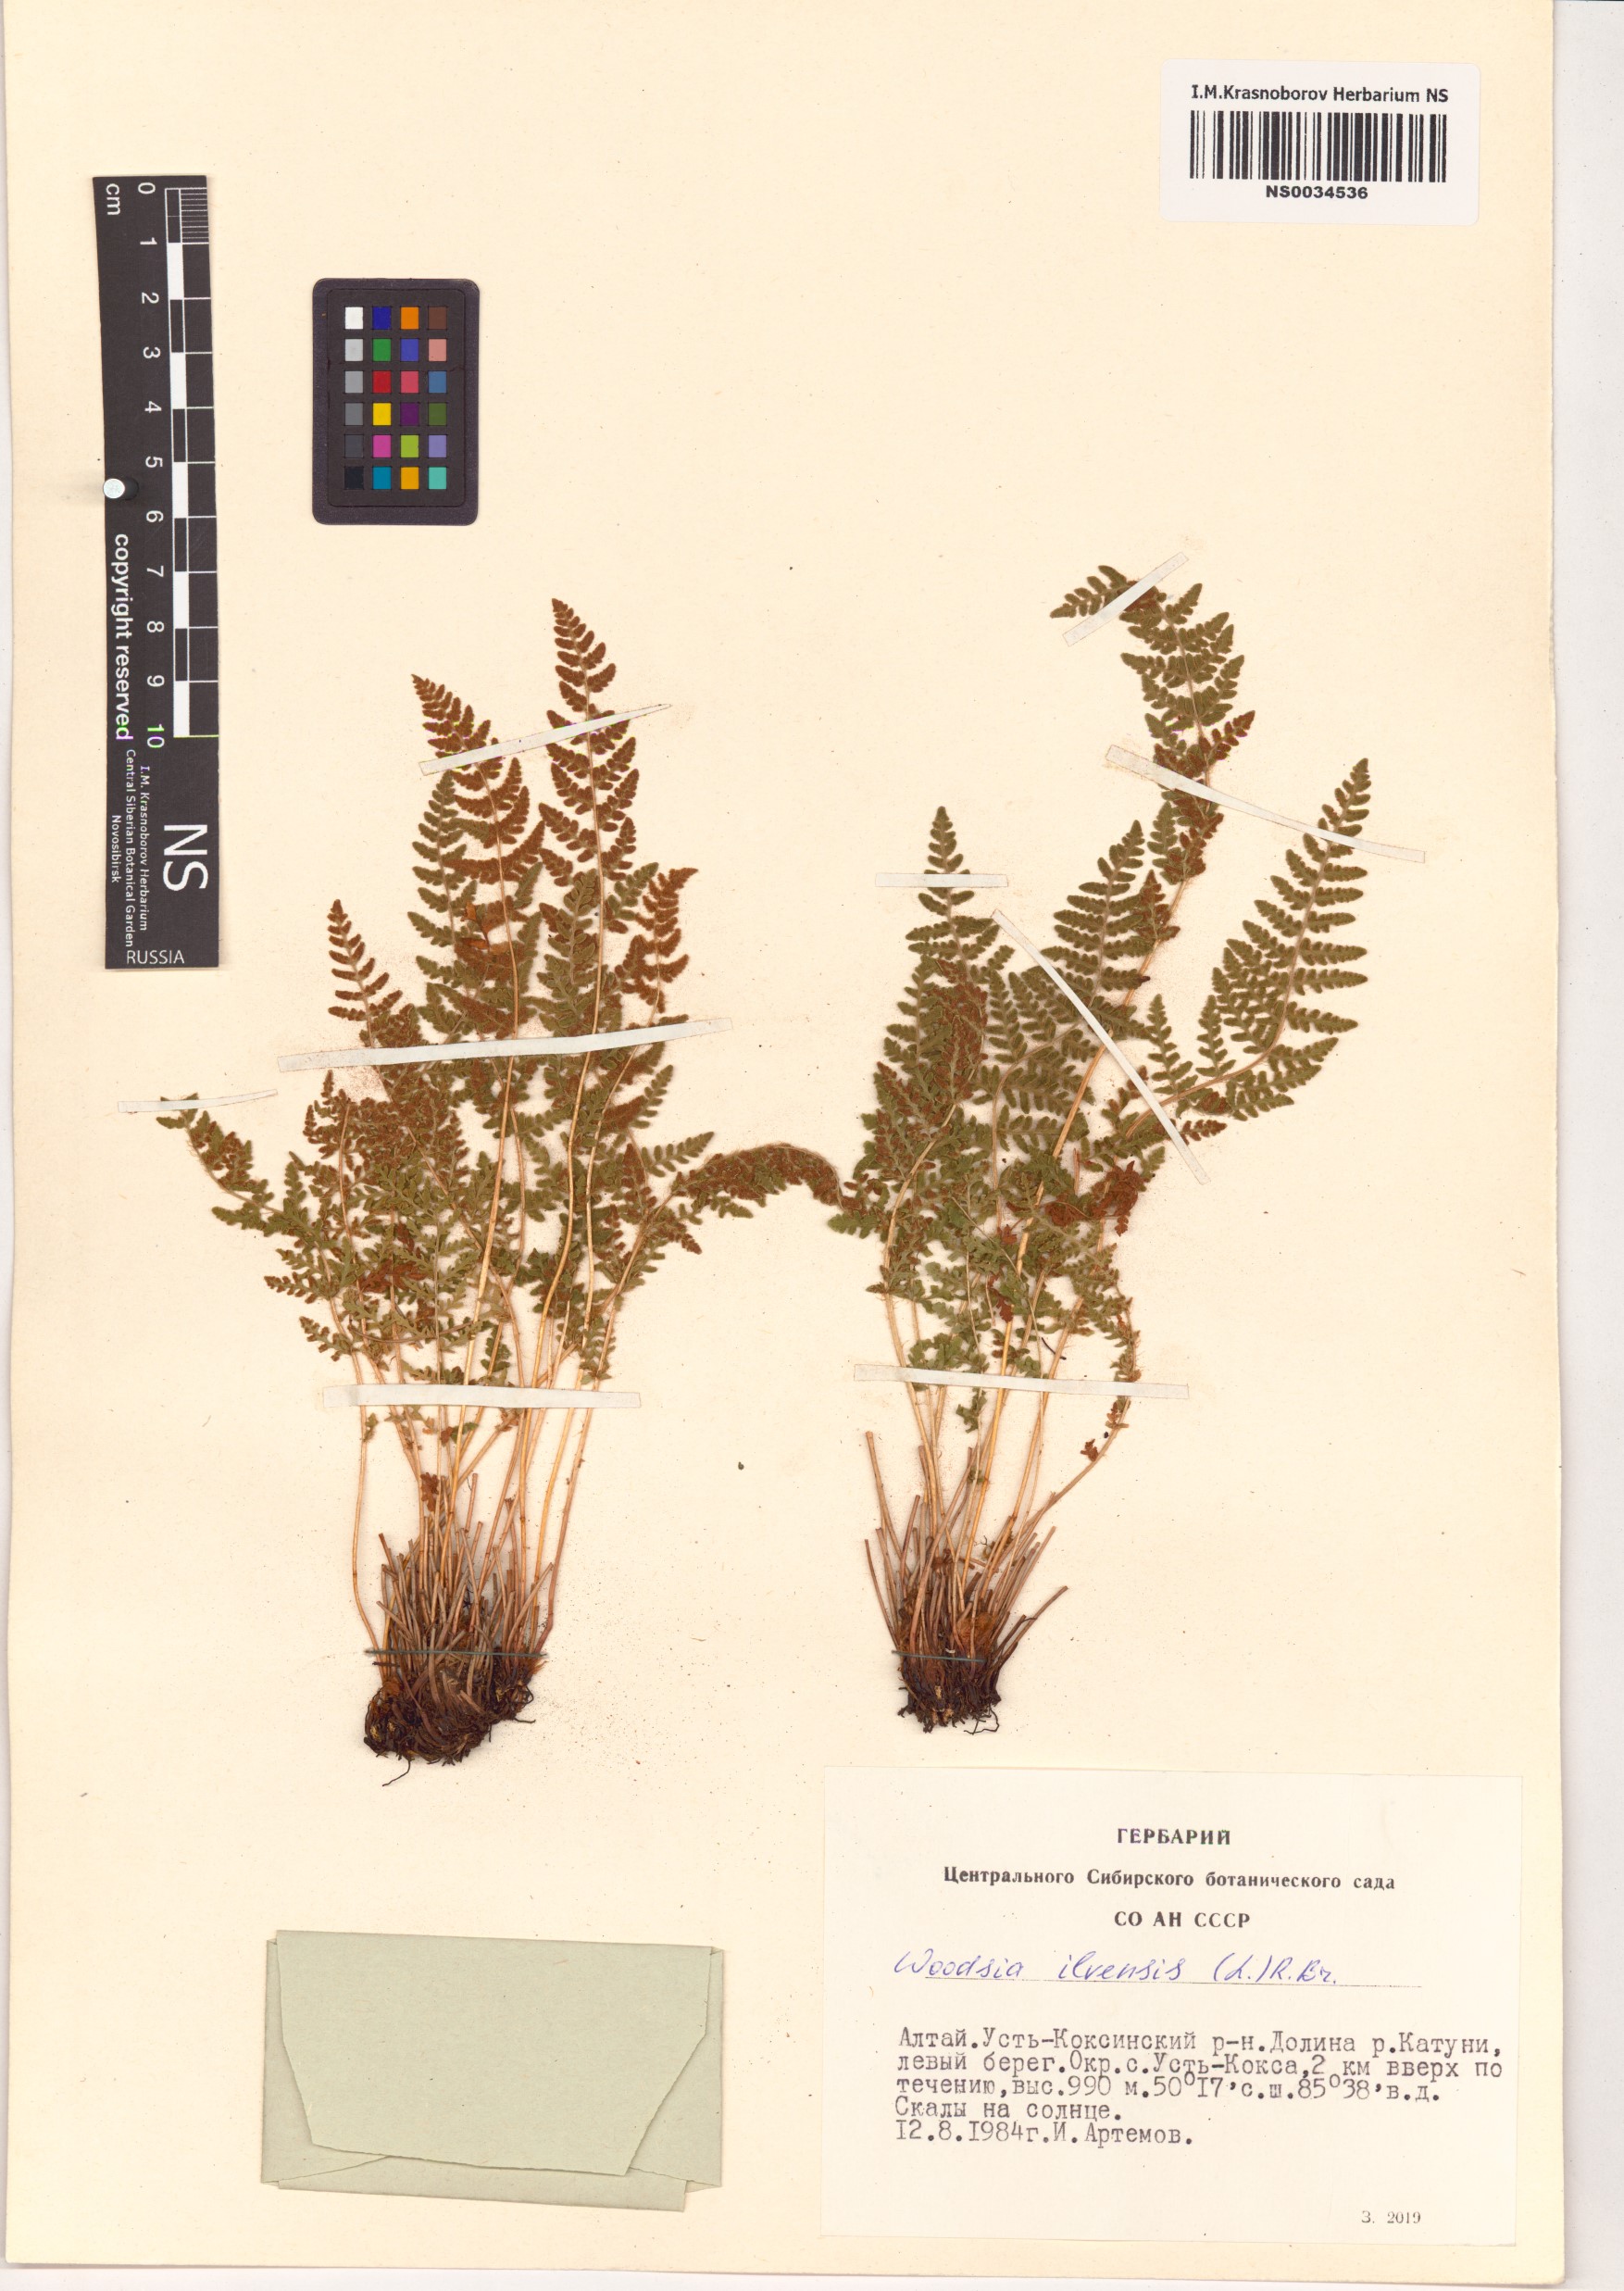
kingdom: Plantae
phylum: Tracheophyta
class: Polypodiopsida
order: Polypodiales
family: Woodsiaceae
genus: Woodsia
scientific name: Woodsia ilvensis
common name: Fragrant woodsia
